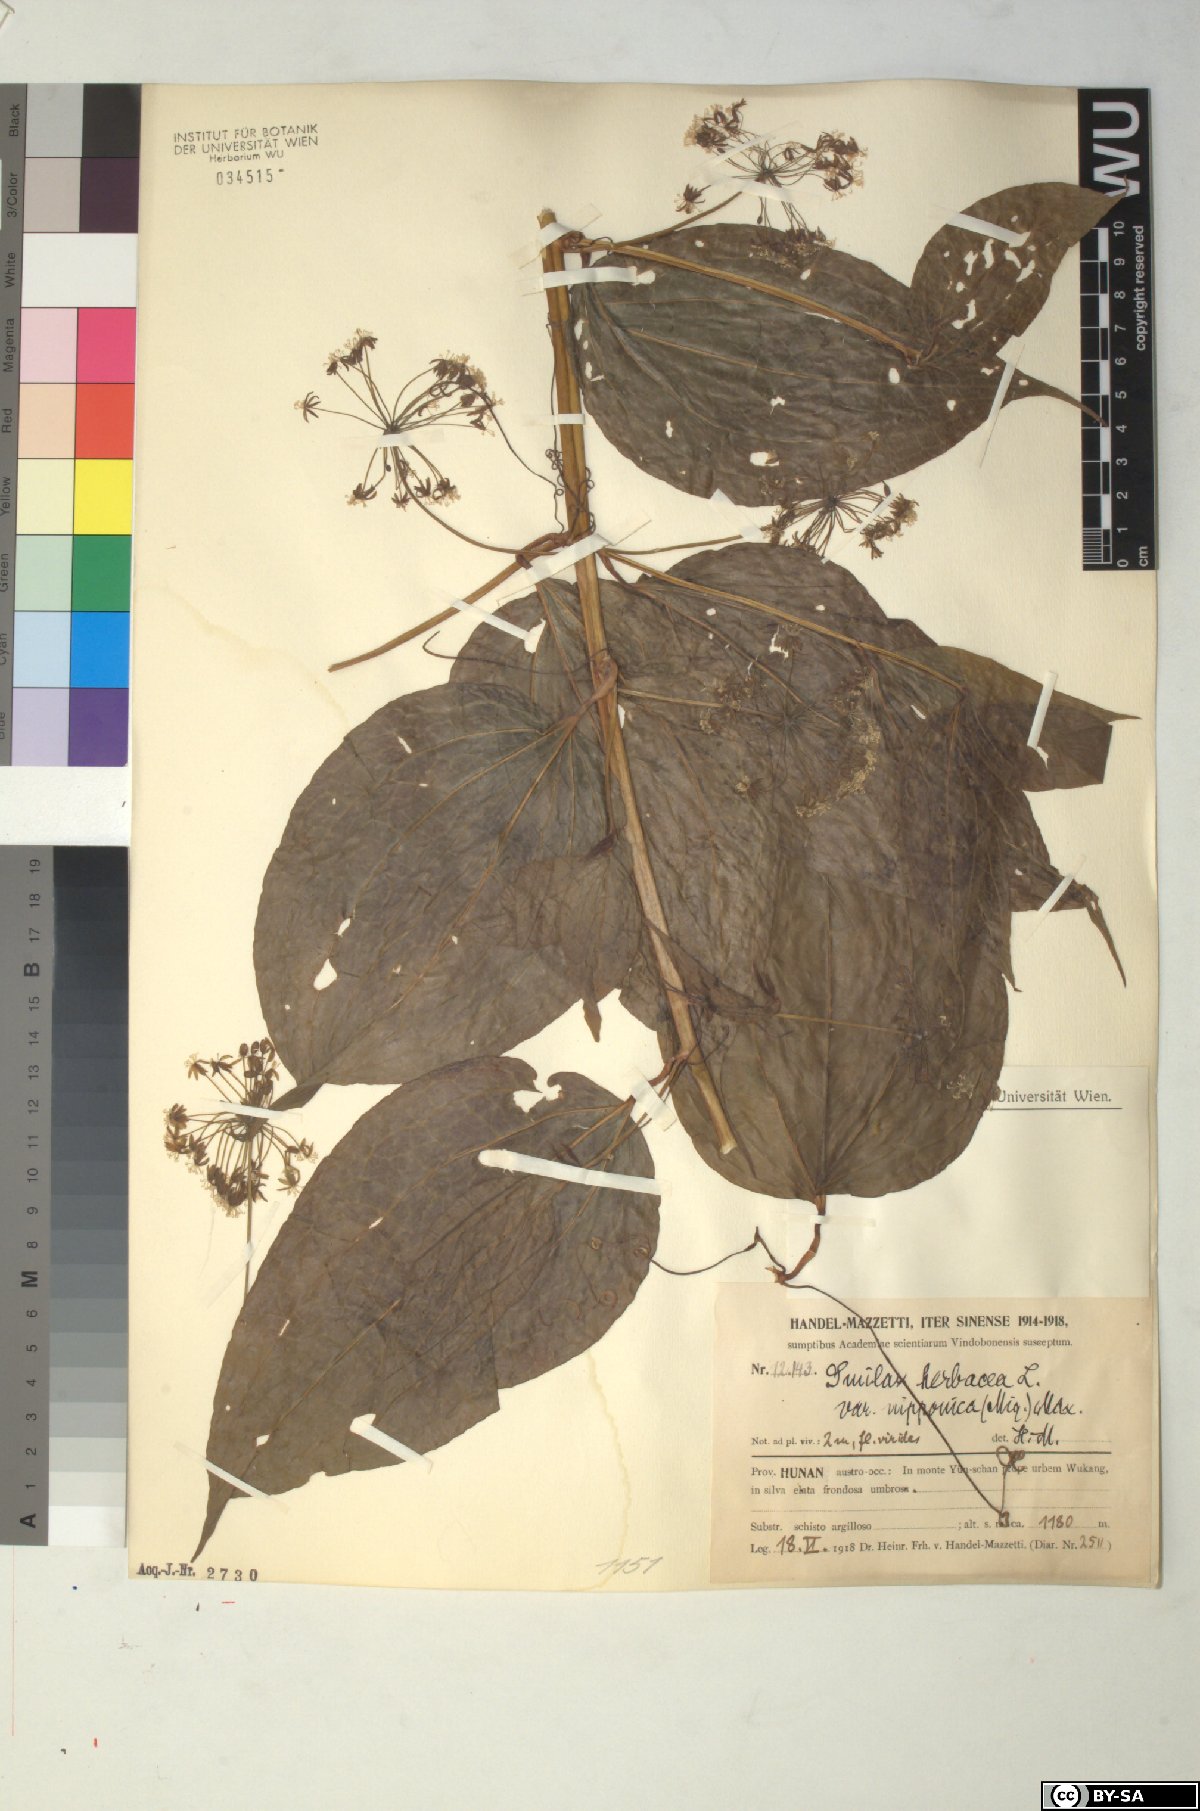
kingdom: Plantae
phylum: Tracheophyta
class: Liliopsida
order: Liliales
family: Smilacaceae
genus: Smilax
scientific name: Smilax nipponica
